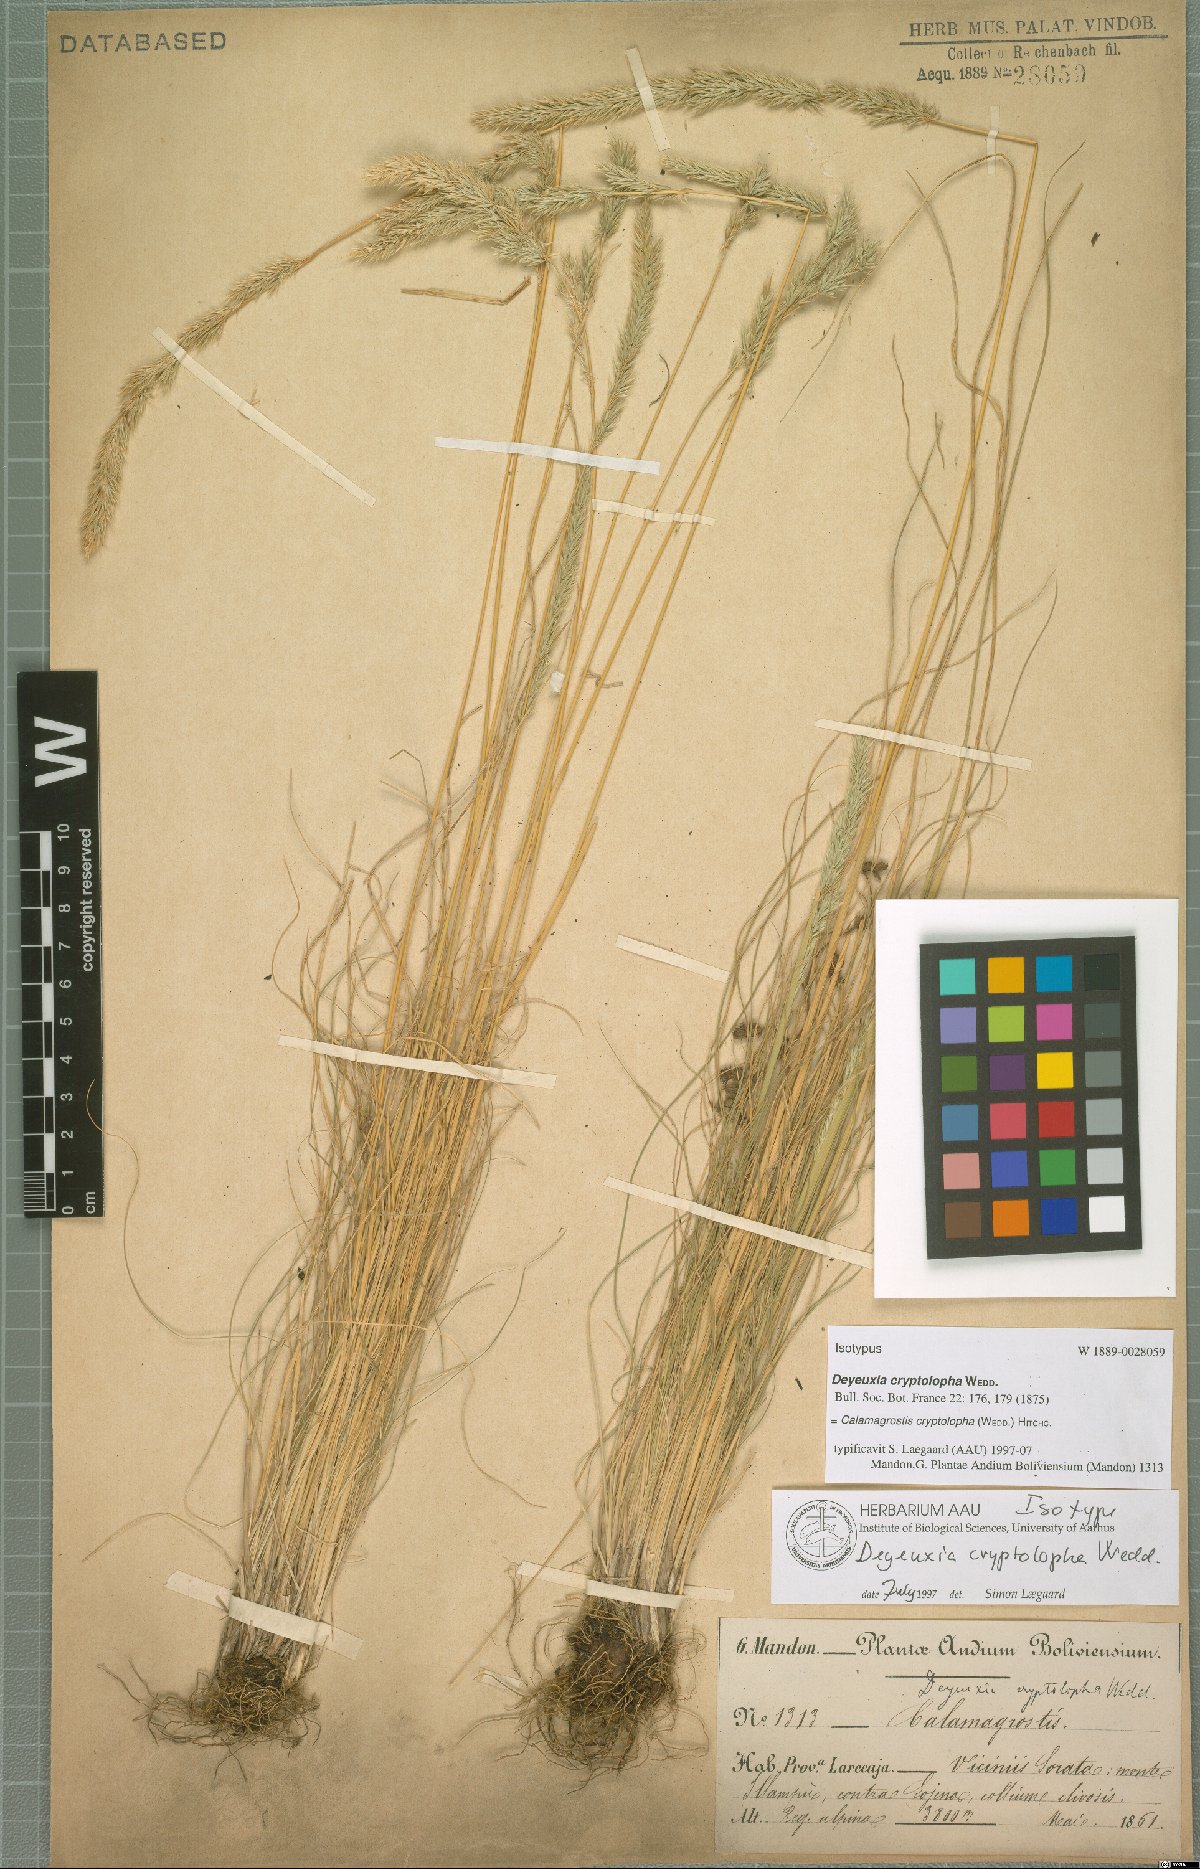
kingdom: Plantae
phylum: Tracheophyta
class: Liliopsida
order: Poales
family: Poaceae
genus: Cinnagrostis
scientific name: Cinnagrostis cryptolopha
